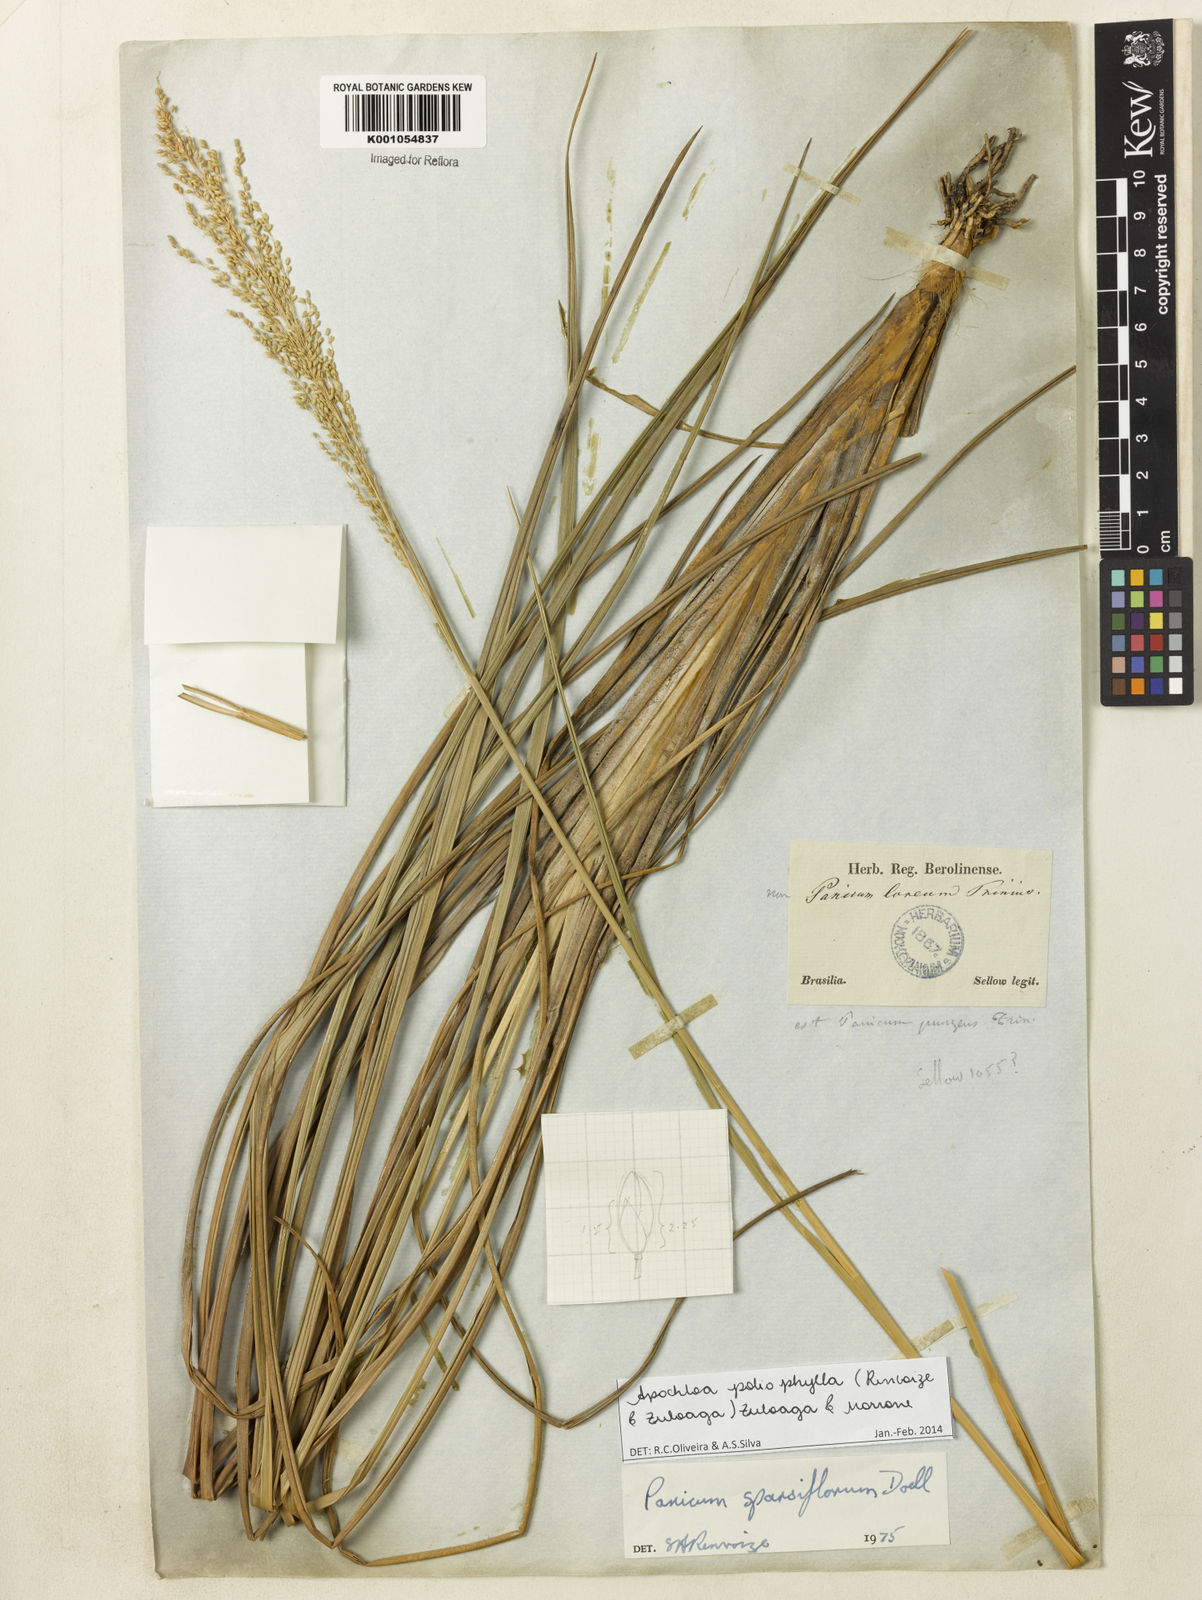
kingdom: Plantae
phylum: Tracheophyta
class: Liliopsida
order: Poales
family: Poaceae
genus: Apochloa
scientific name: Apochloa poliophylla
